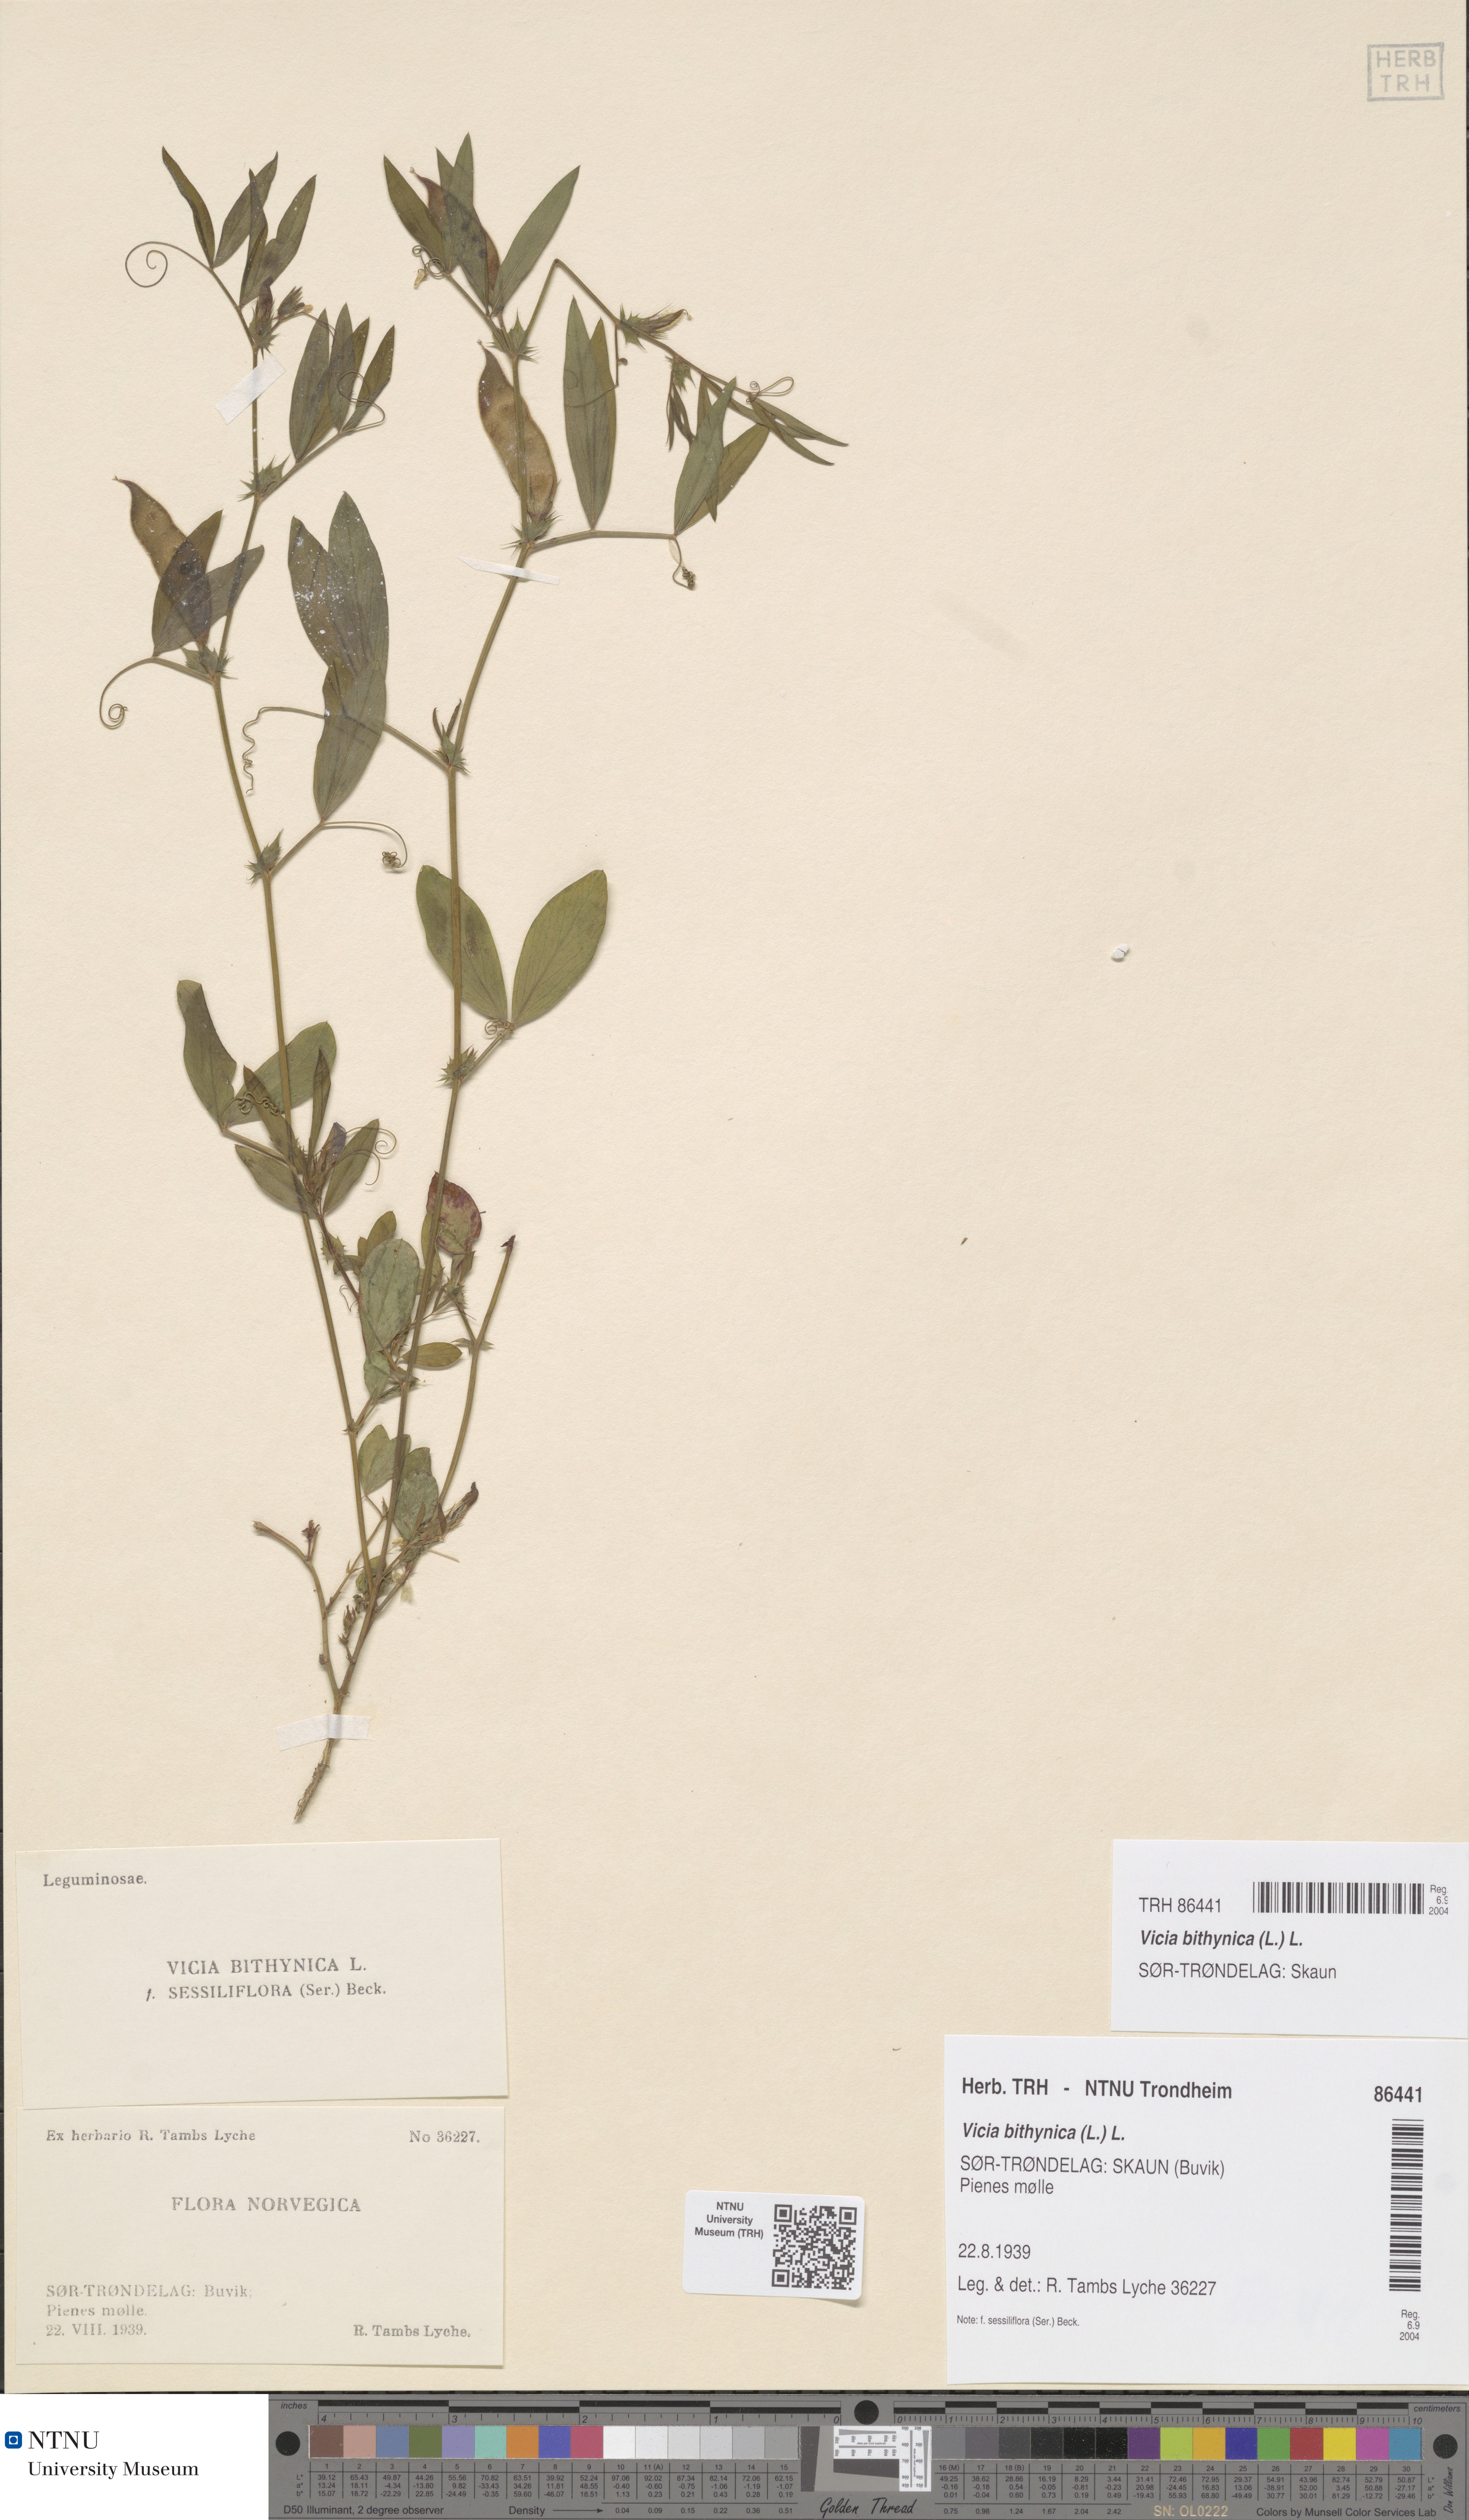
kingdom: Plantae
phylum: Tracheophyta
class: Magnoliopsida
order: Fabales
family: Fabaceae
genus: Vicia
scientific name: Vicia bithynica
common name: Bithynian vetch
